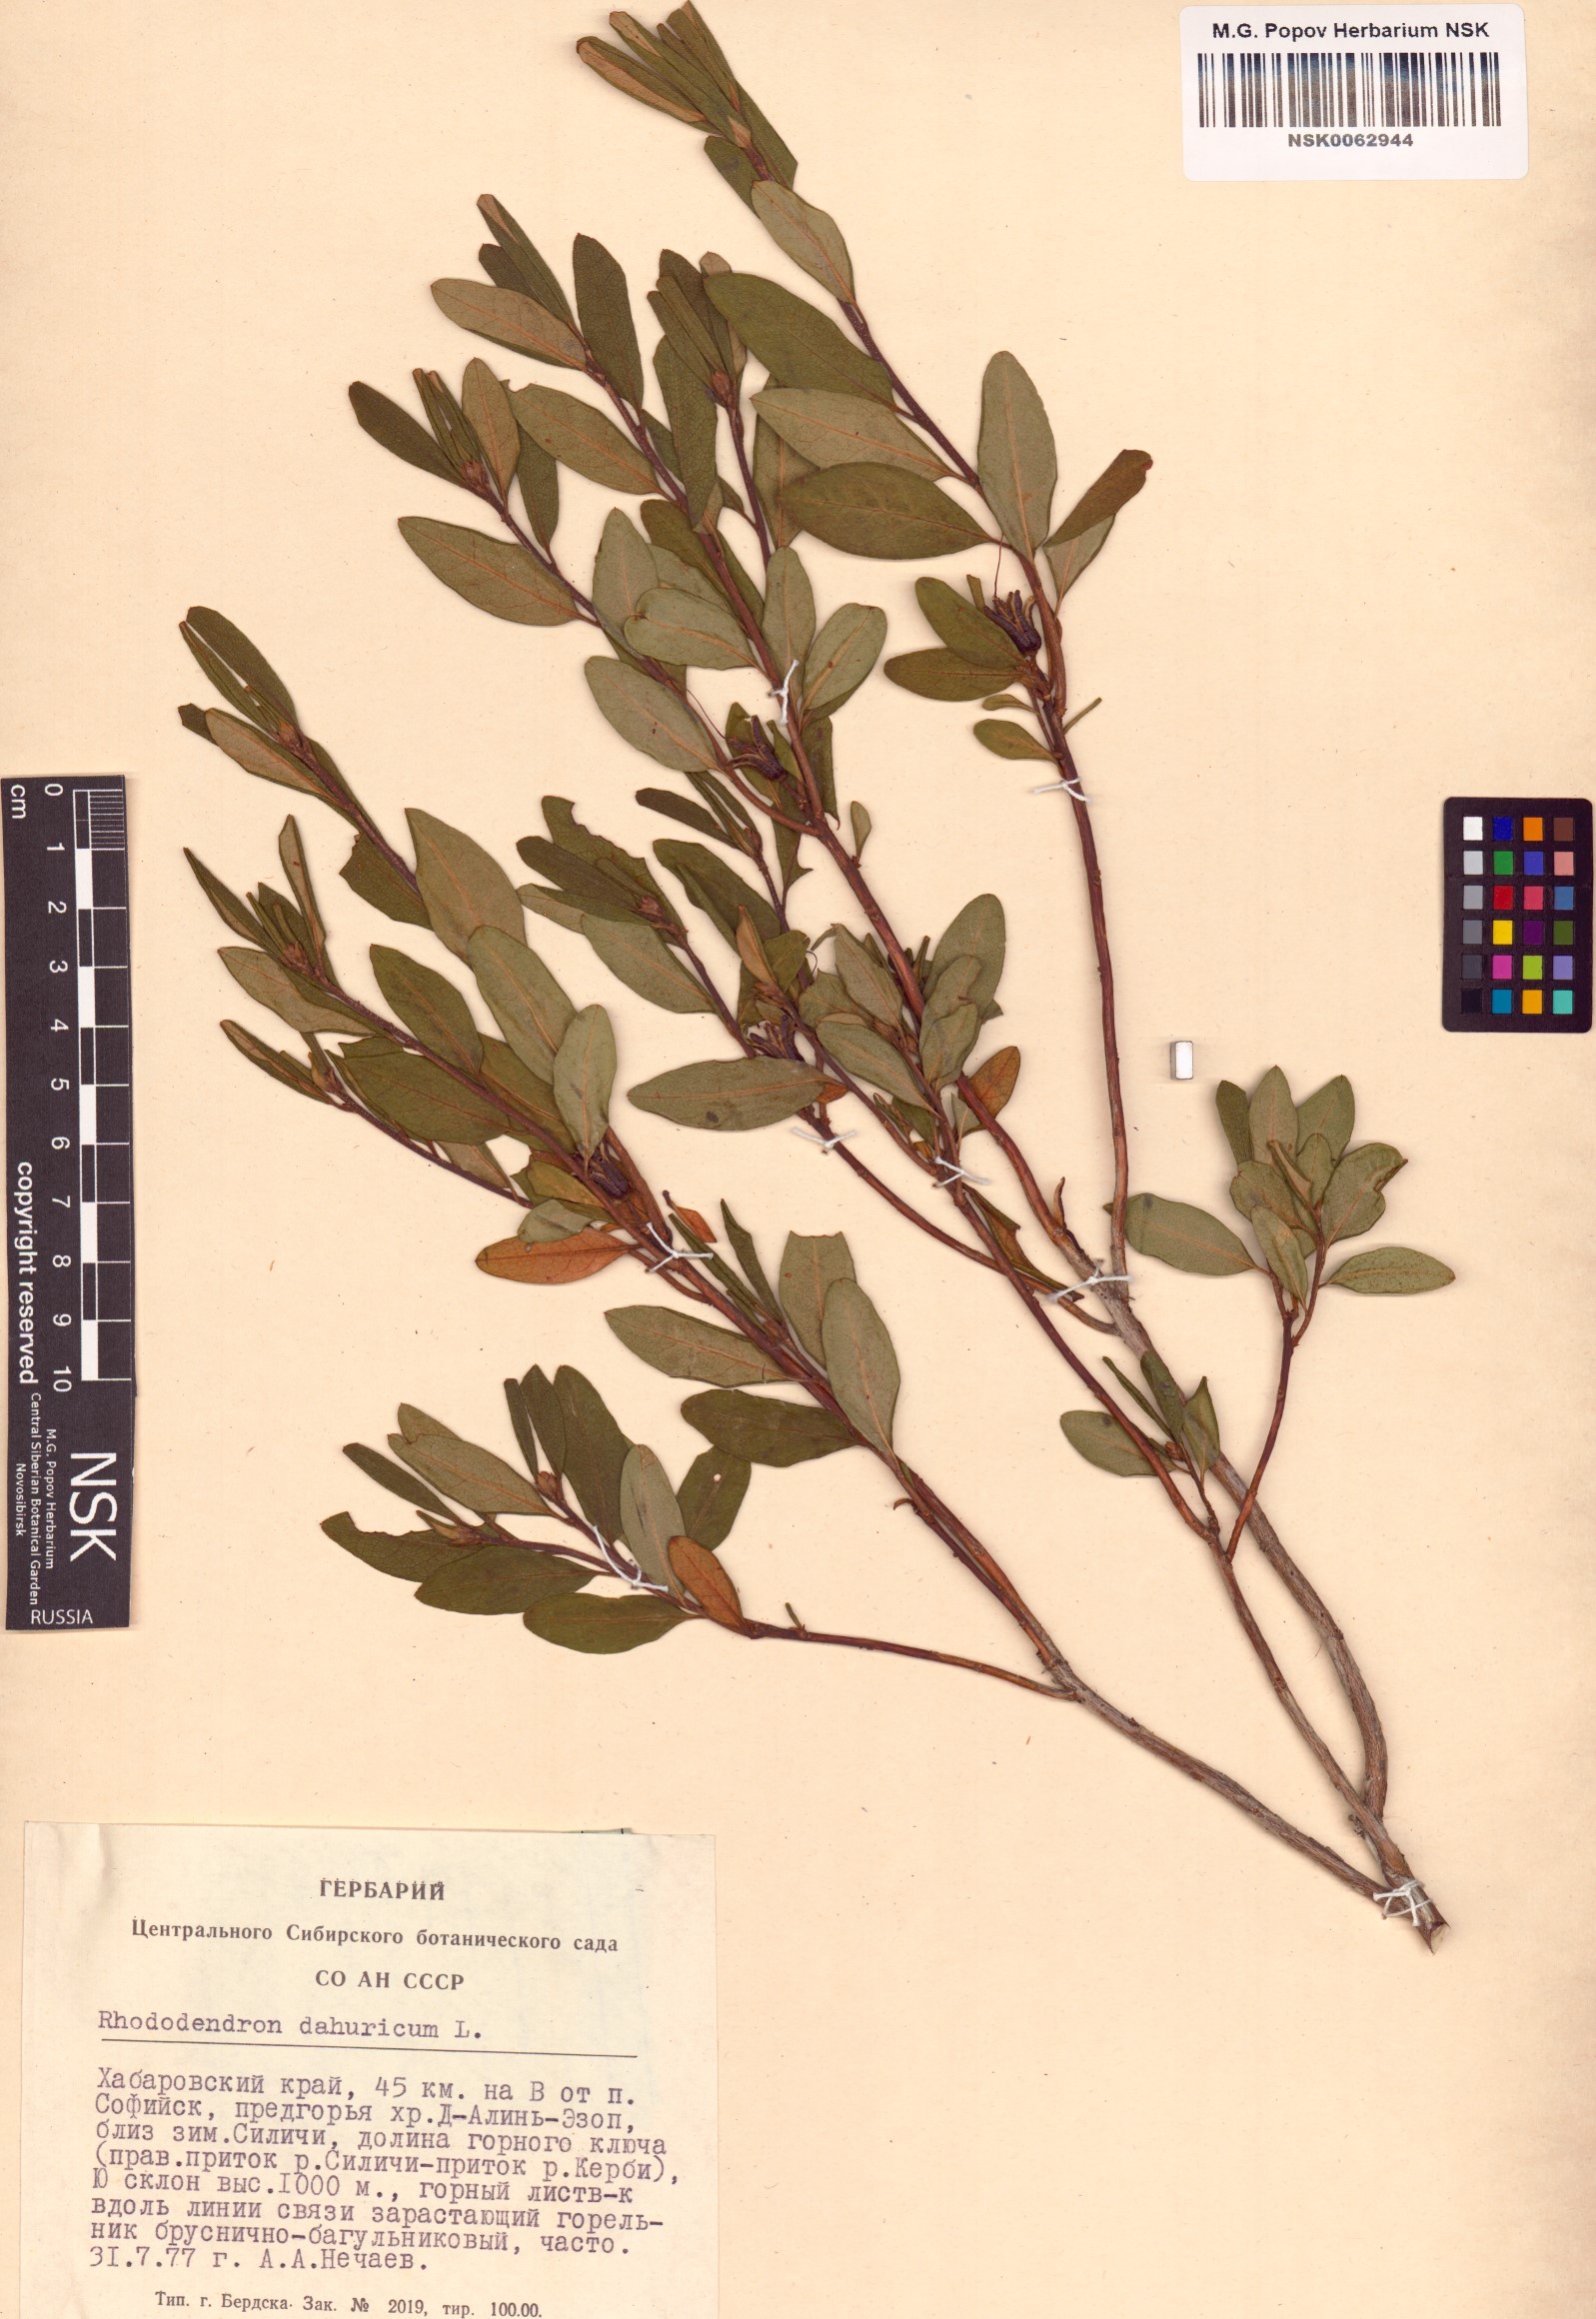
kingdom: Plantae
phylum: Tracheophyta
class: Magnoliopsida
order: Ericales
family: Ericaceae
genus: Rhododendron
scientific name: Rhododendron dauricum
